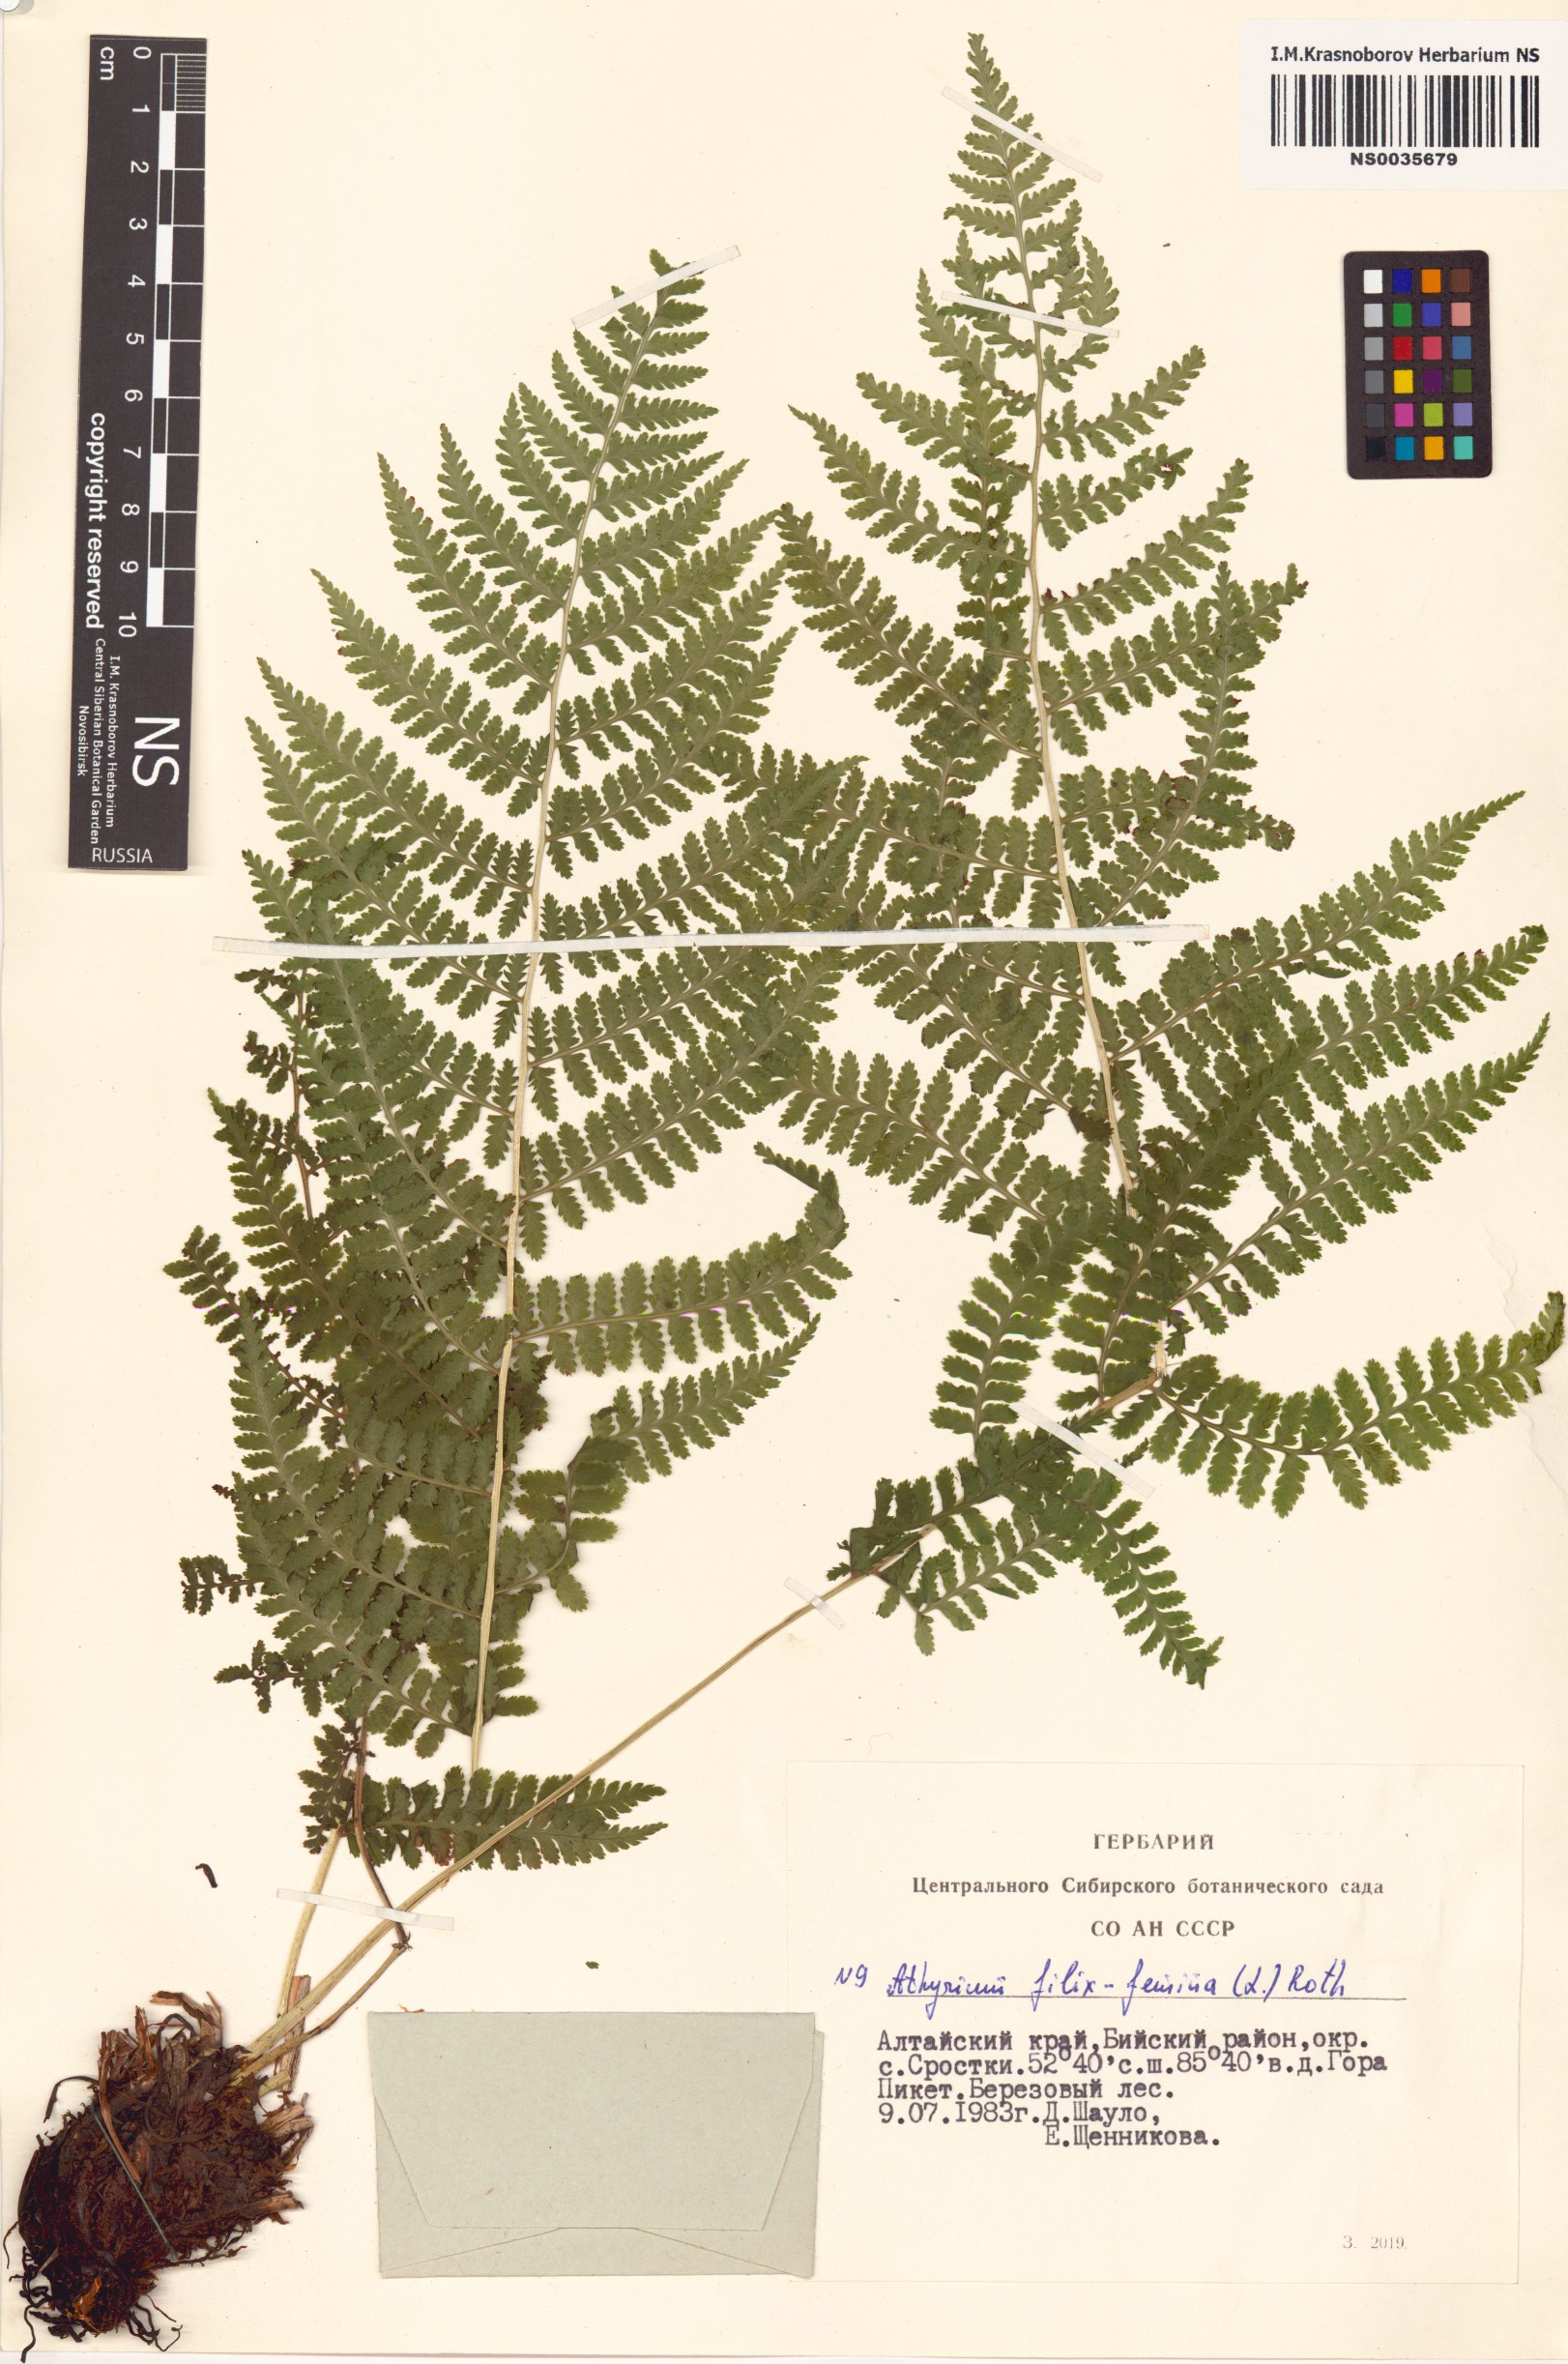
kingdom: Plantae
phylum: Tracheophyta
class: Polypodiopsida
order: Polypodiales
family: Athyriaceae
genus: Athyrium
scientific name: Athyrium filix-femina
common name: Lady fern
